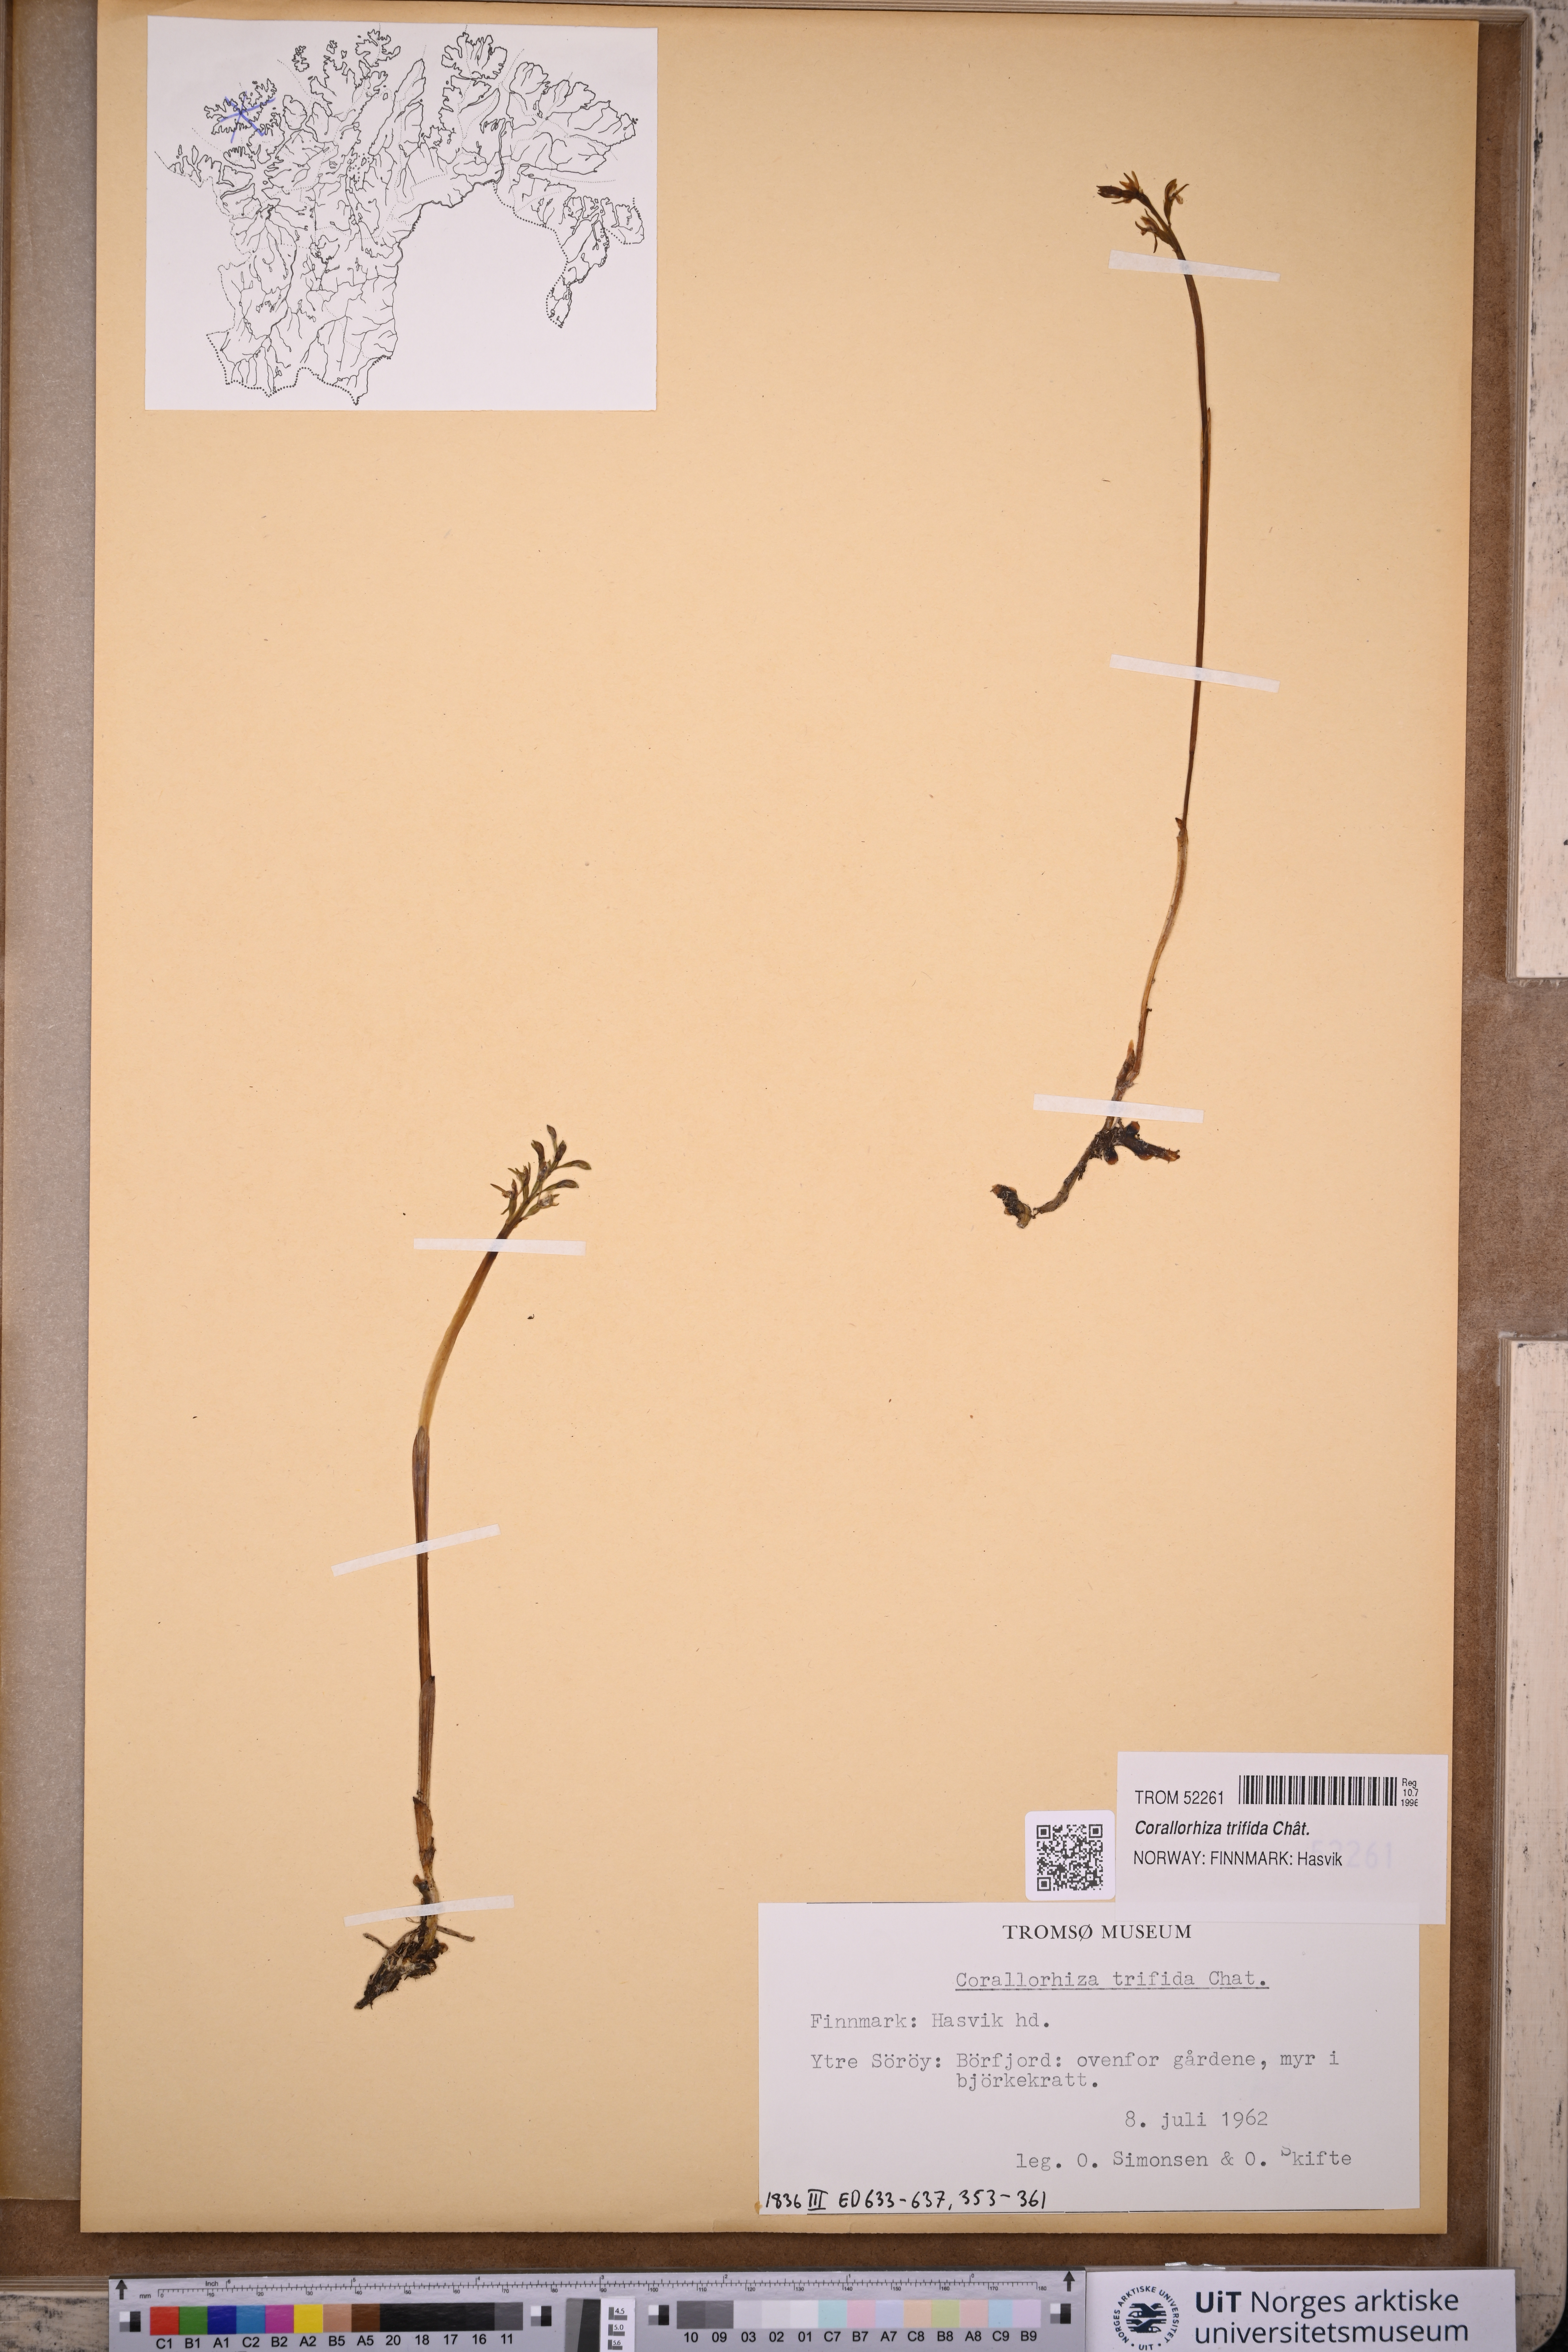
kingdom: Plantae
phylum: Tracheophyta
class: Liliopsida
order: Asparagales
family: Orchidaceae
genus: Corallorhiza
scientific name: Corallorhiza trifida
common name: Yellow coralroot
